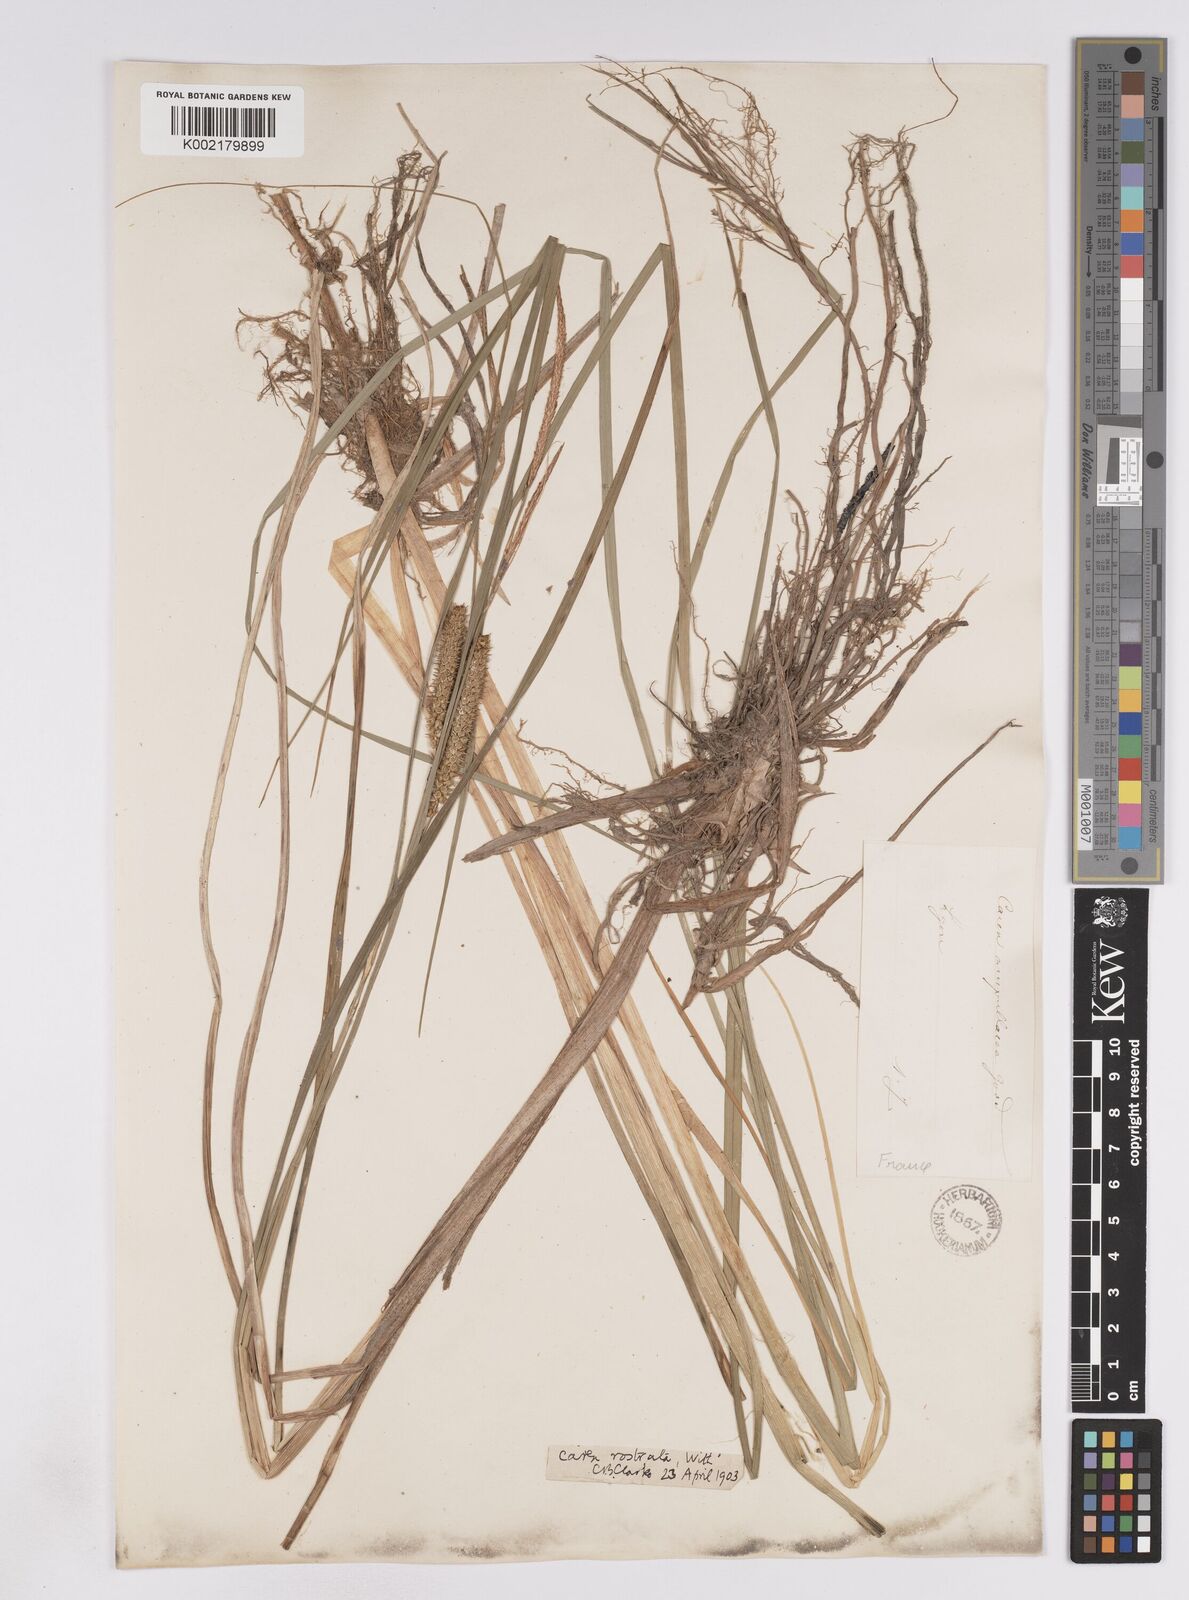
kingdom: Plantae
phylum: Tracheophyta
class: Liliopsida
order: Poales
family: Cyperaceae
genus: Carex
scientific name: Carex rostrata
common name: Bottle sedge
